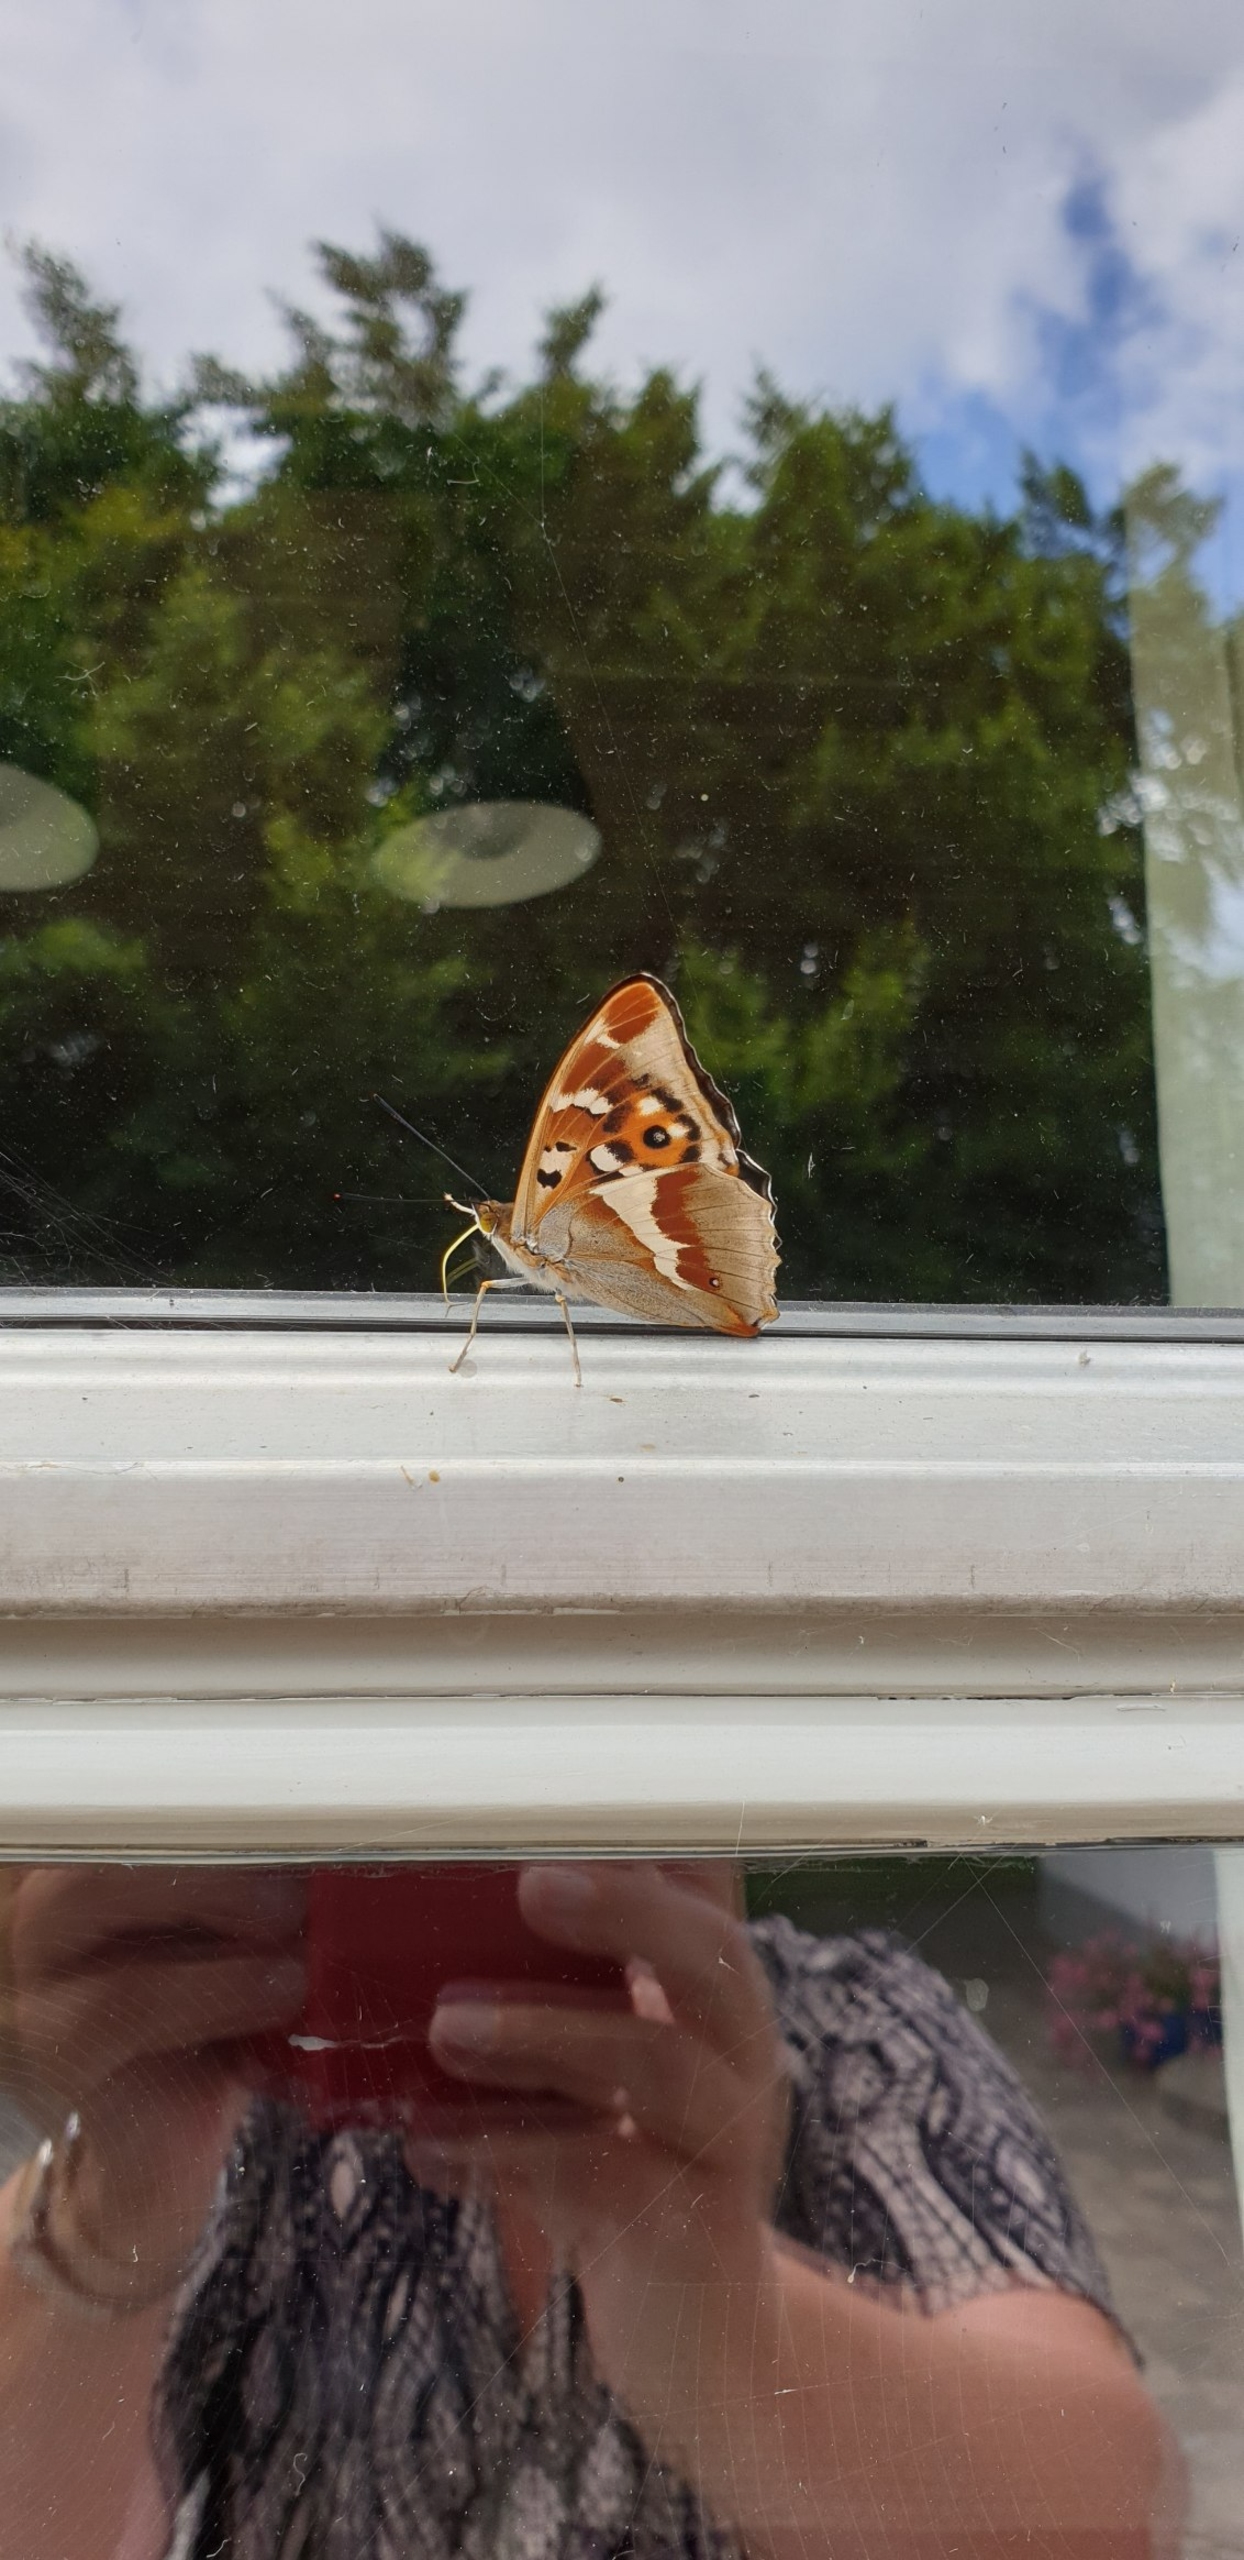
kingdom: Animalia
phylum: Arthropoda
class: Insecta
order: Lepidoptera
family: Nymphalidae
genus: Apatura
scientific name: Apatura iris
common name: Iris
